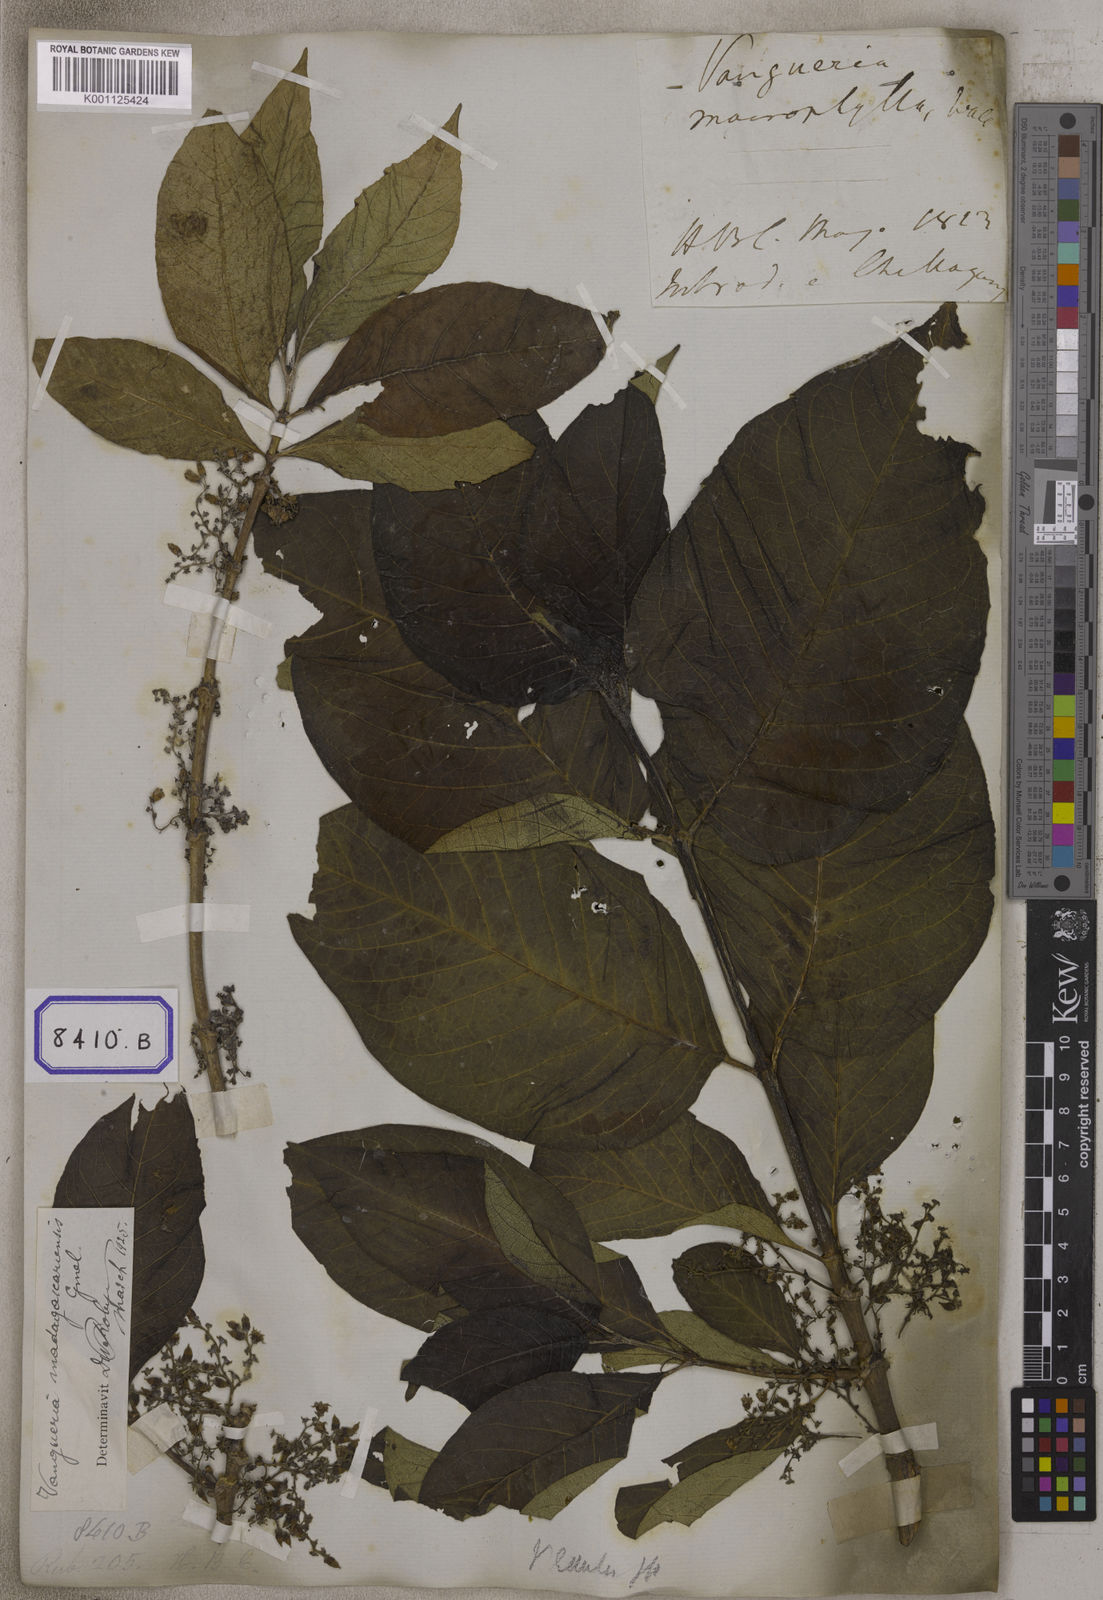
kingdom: Plantae
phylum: Tracheophyta
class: Magnoliopsida
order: Gentianales
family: Rubiaceae
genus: Vangueria
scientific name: Vangueria madagascariensis
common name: Smooth wild-medlar
